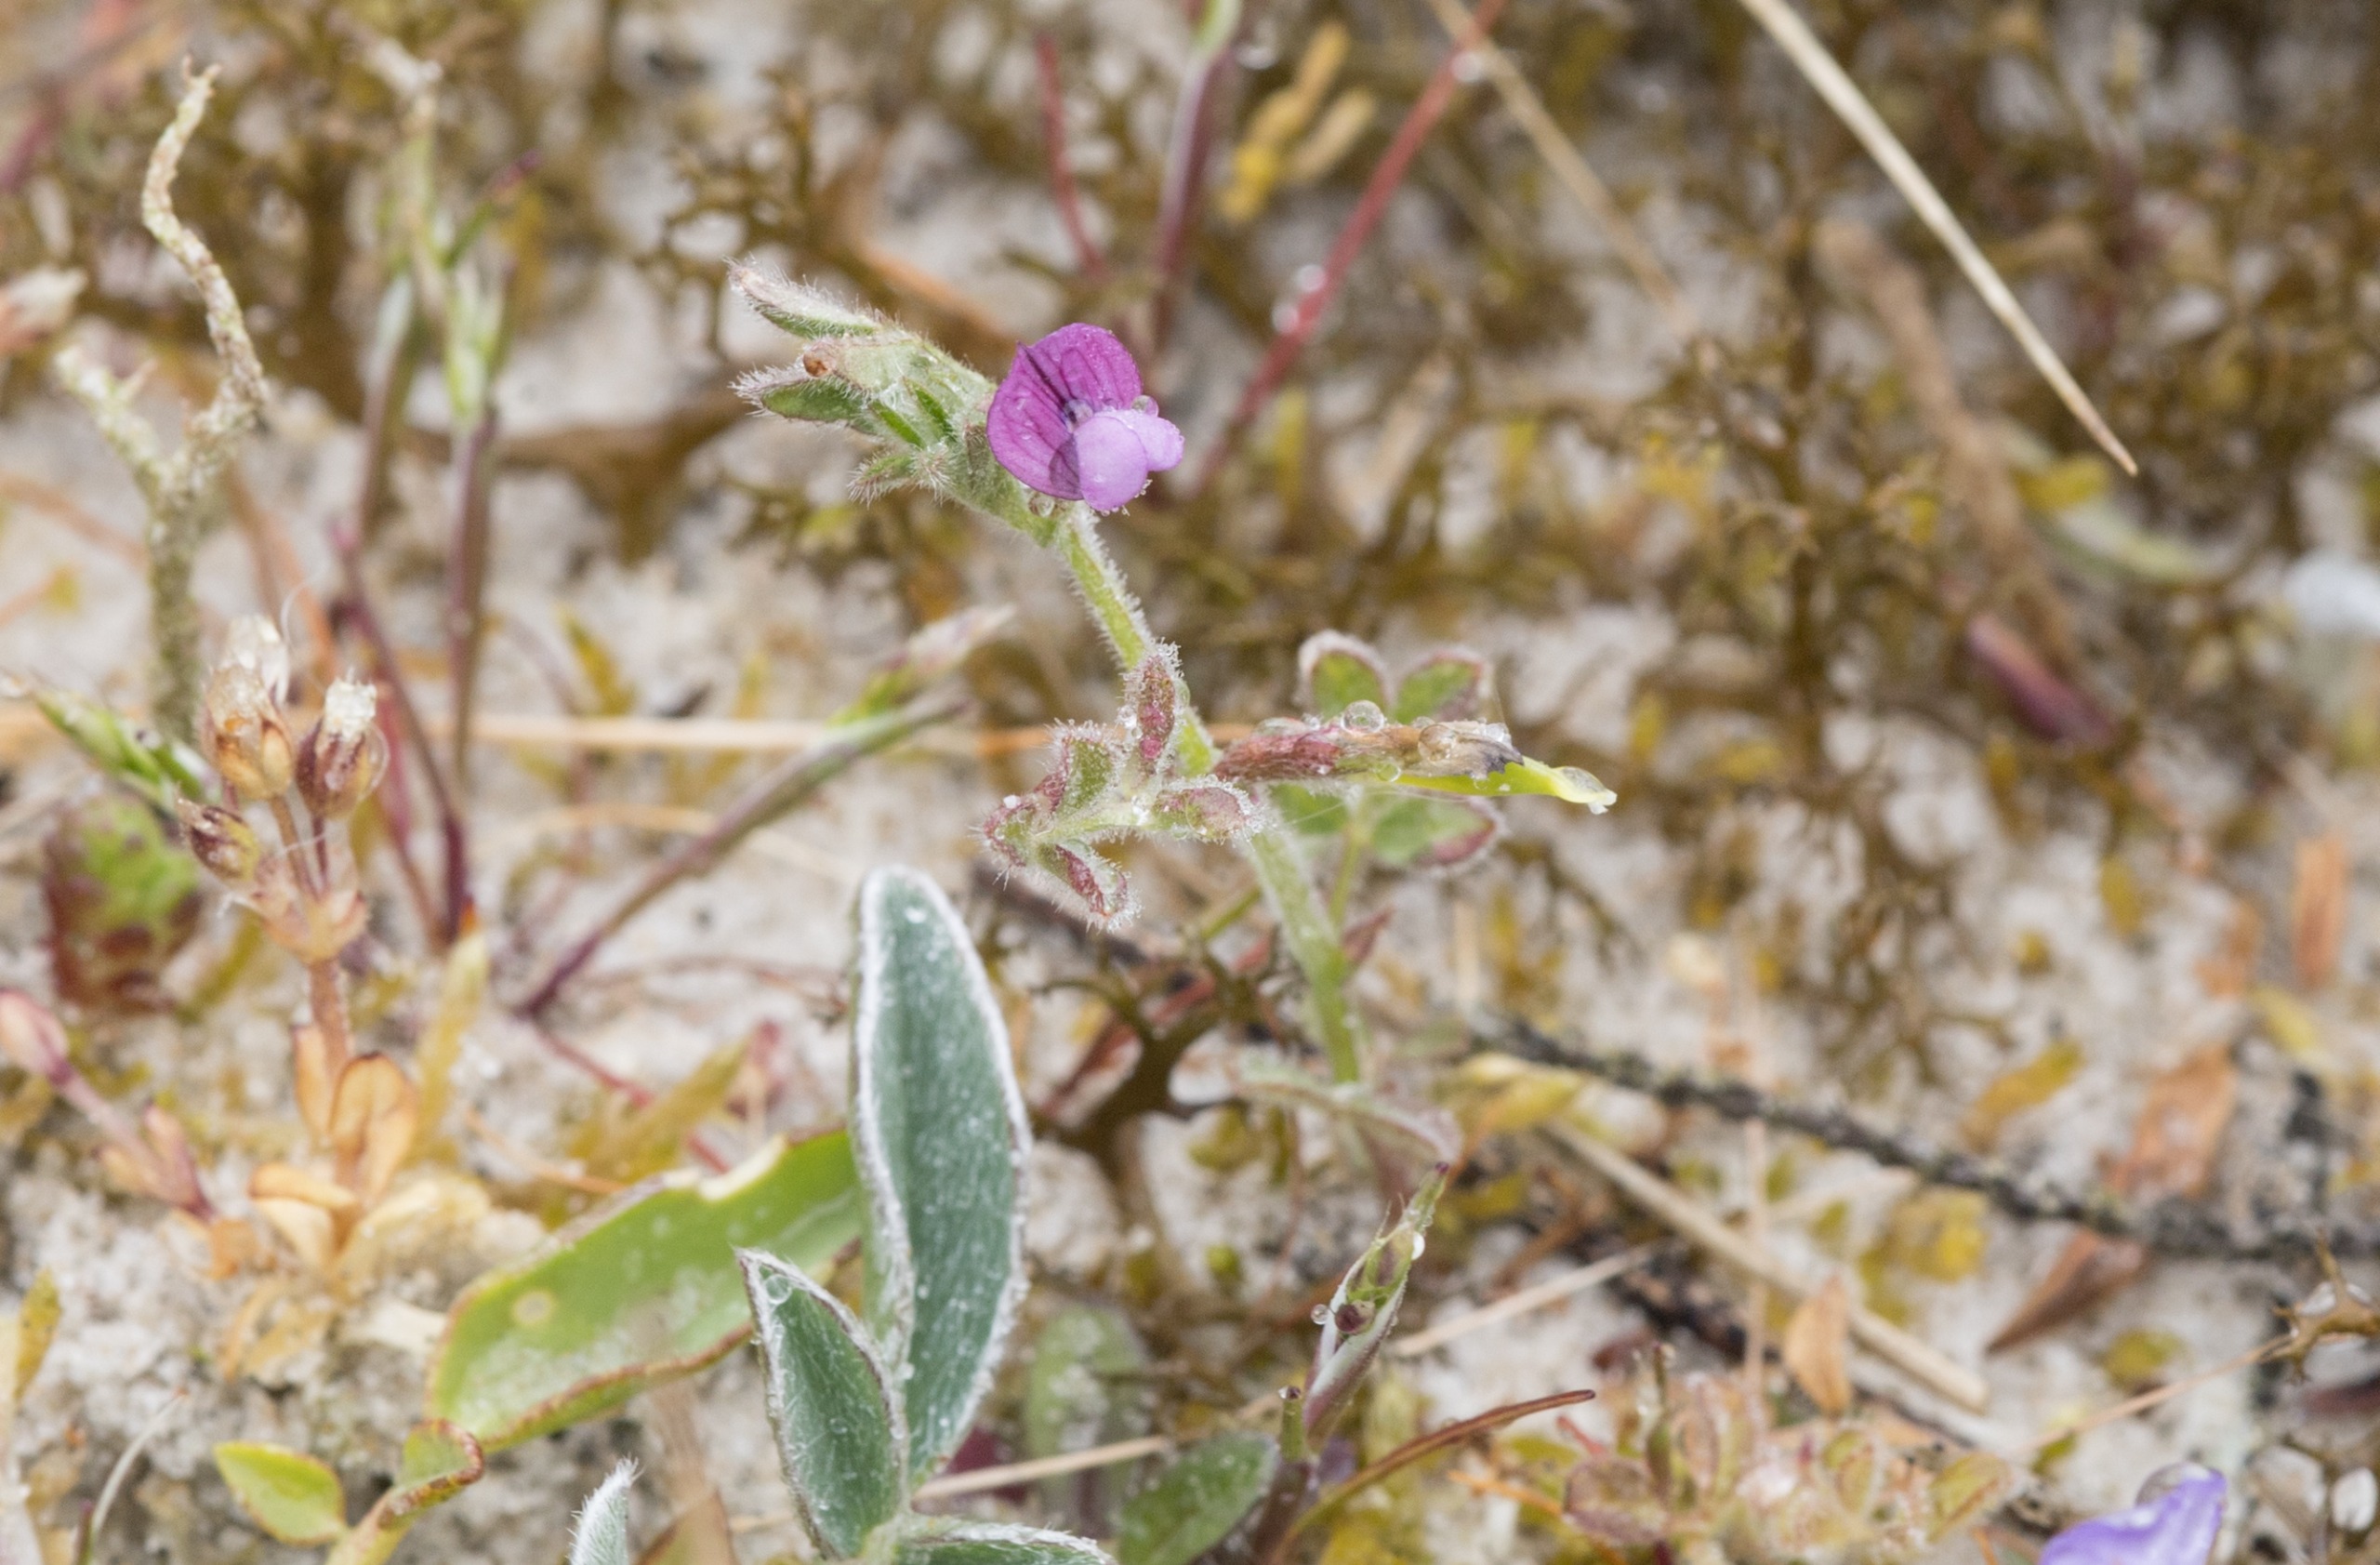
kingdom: Plantae
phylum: Tracheophyta
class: Magnoliopsida
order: Fabales
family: Fabaceae
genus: Vicia
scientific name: Vicia lathyroides
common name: Vår-vikke
